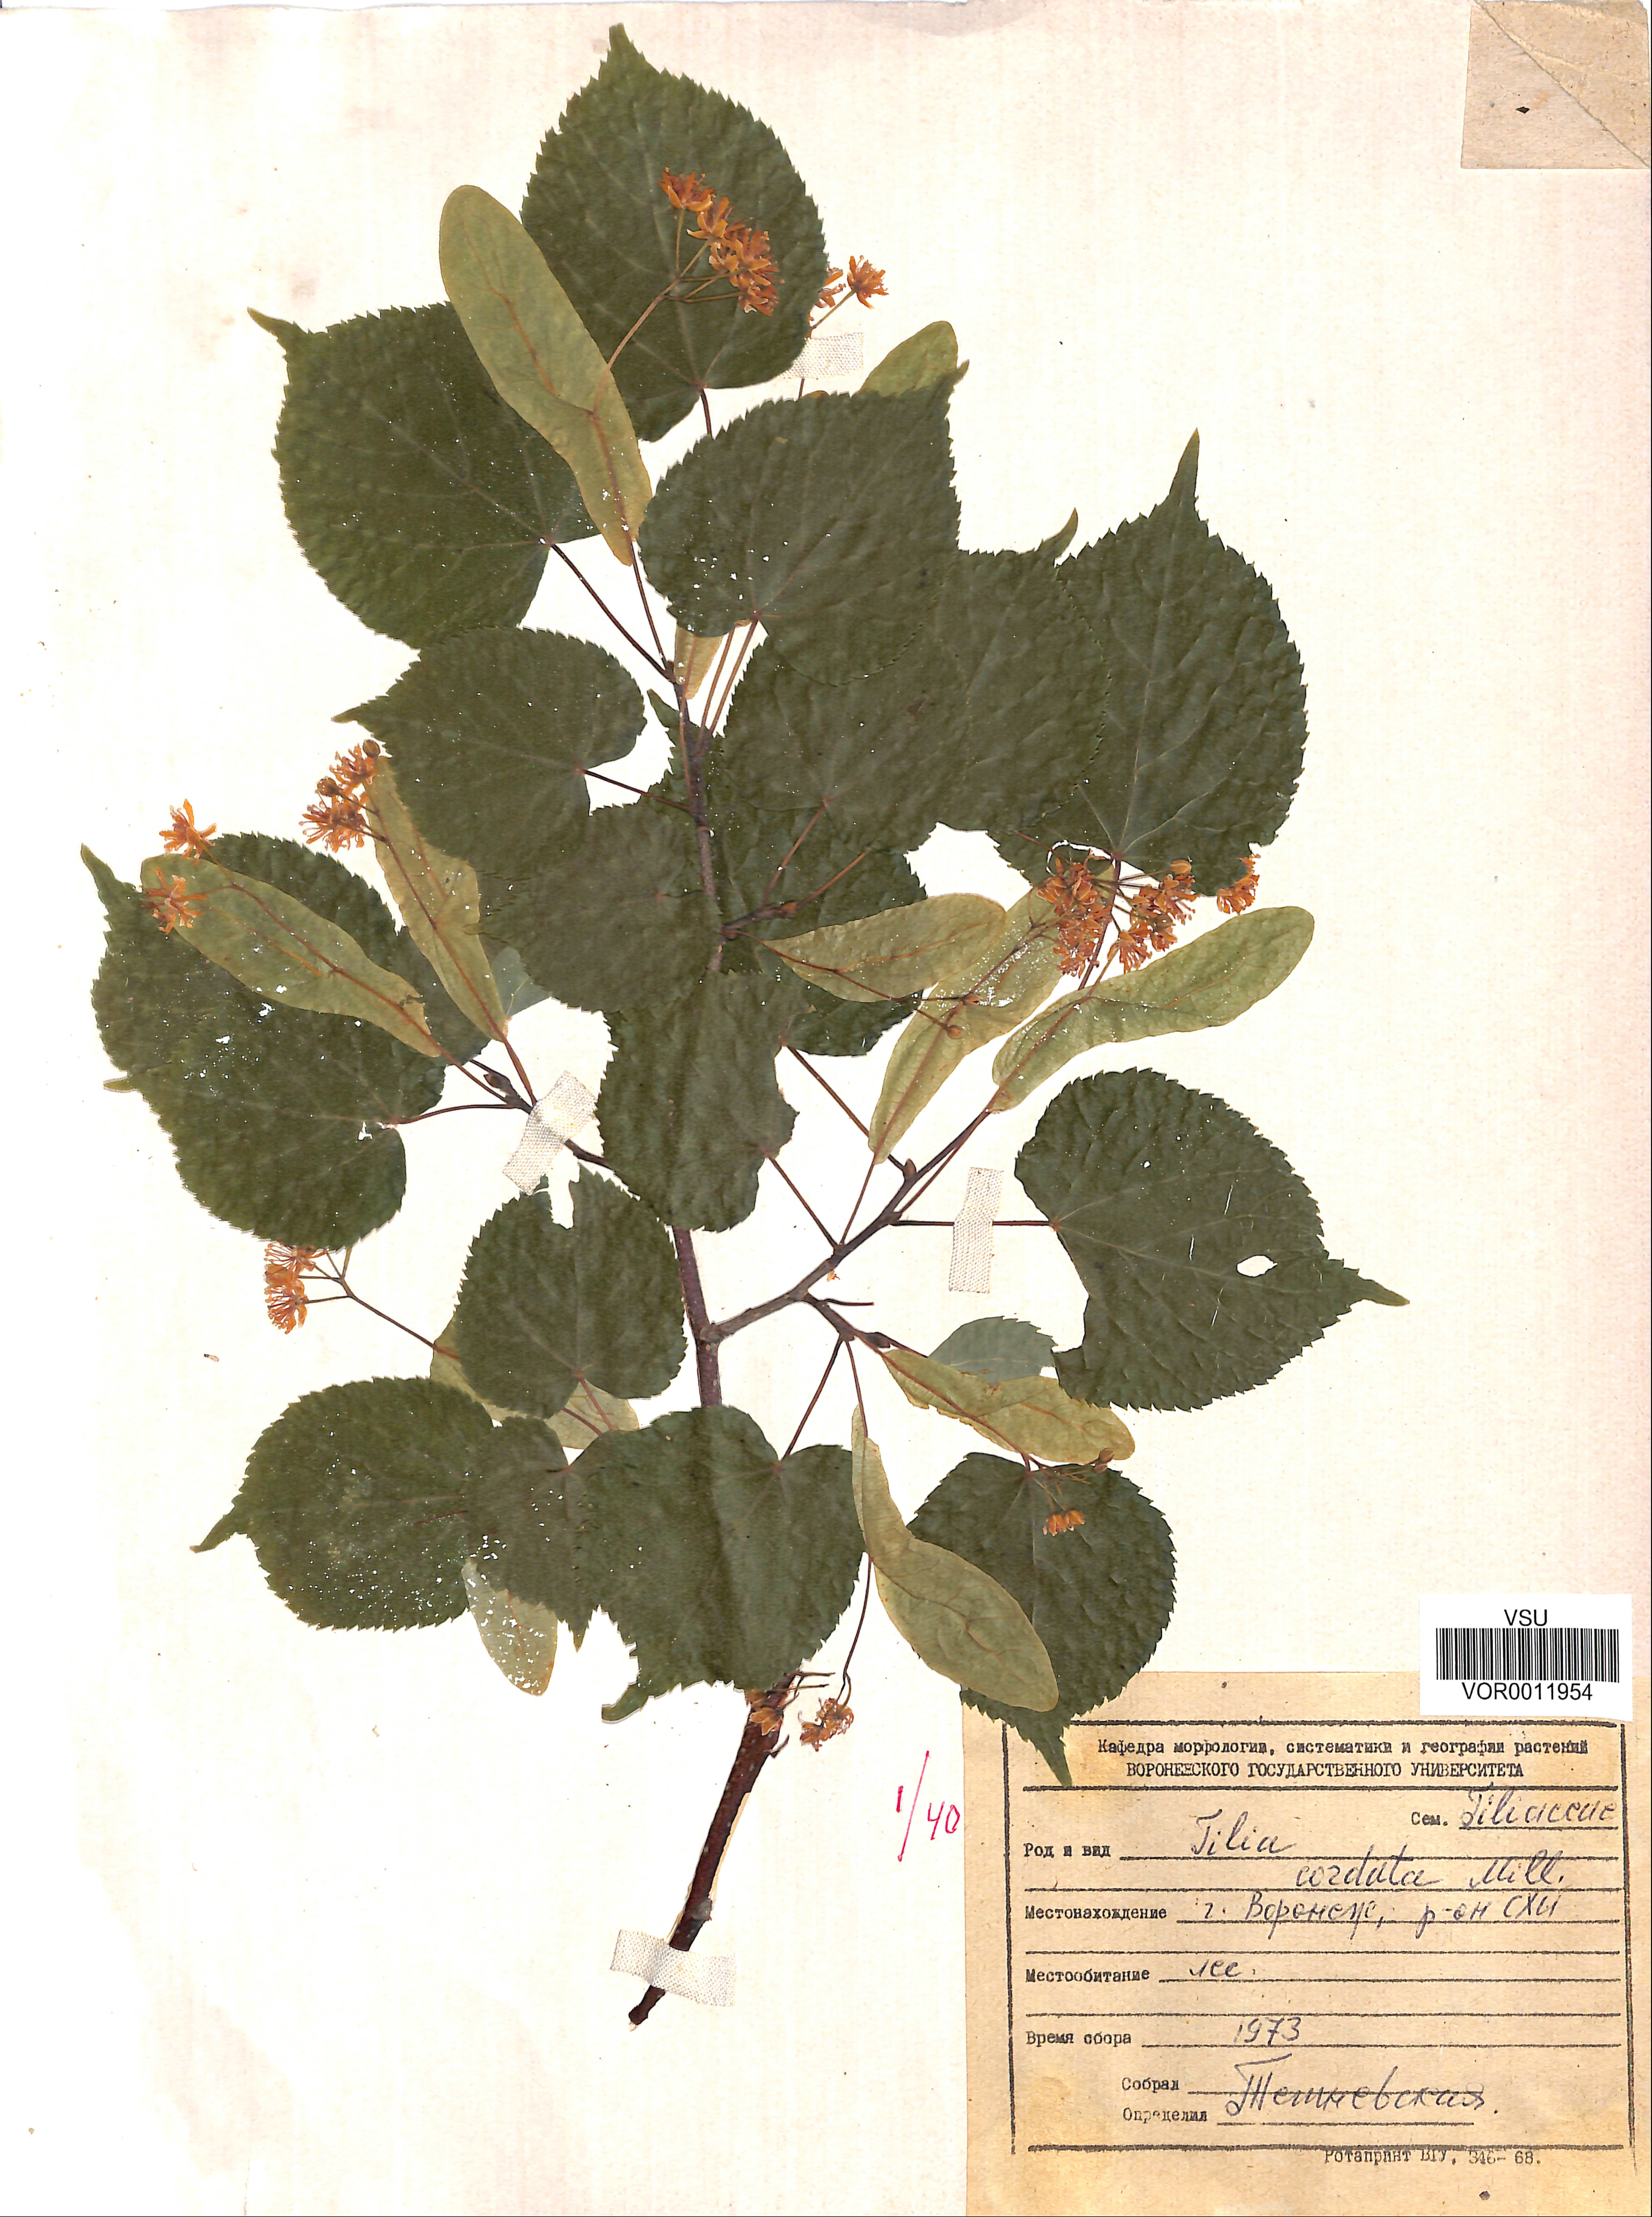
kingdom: Plantae
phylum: Tracheophyta
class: Magnoliopsida
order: Malvales
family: Malvaceae
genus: Tilia
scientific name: Tilia cordata
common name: Small-leaved lime
